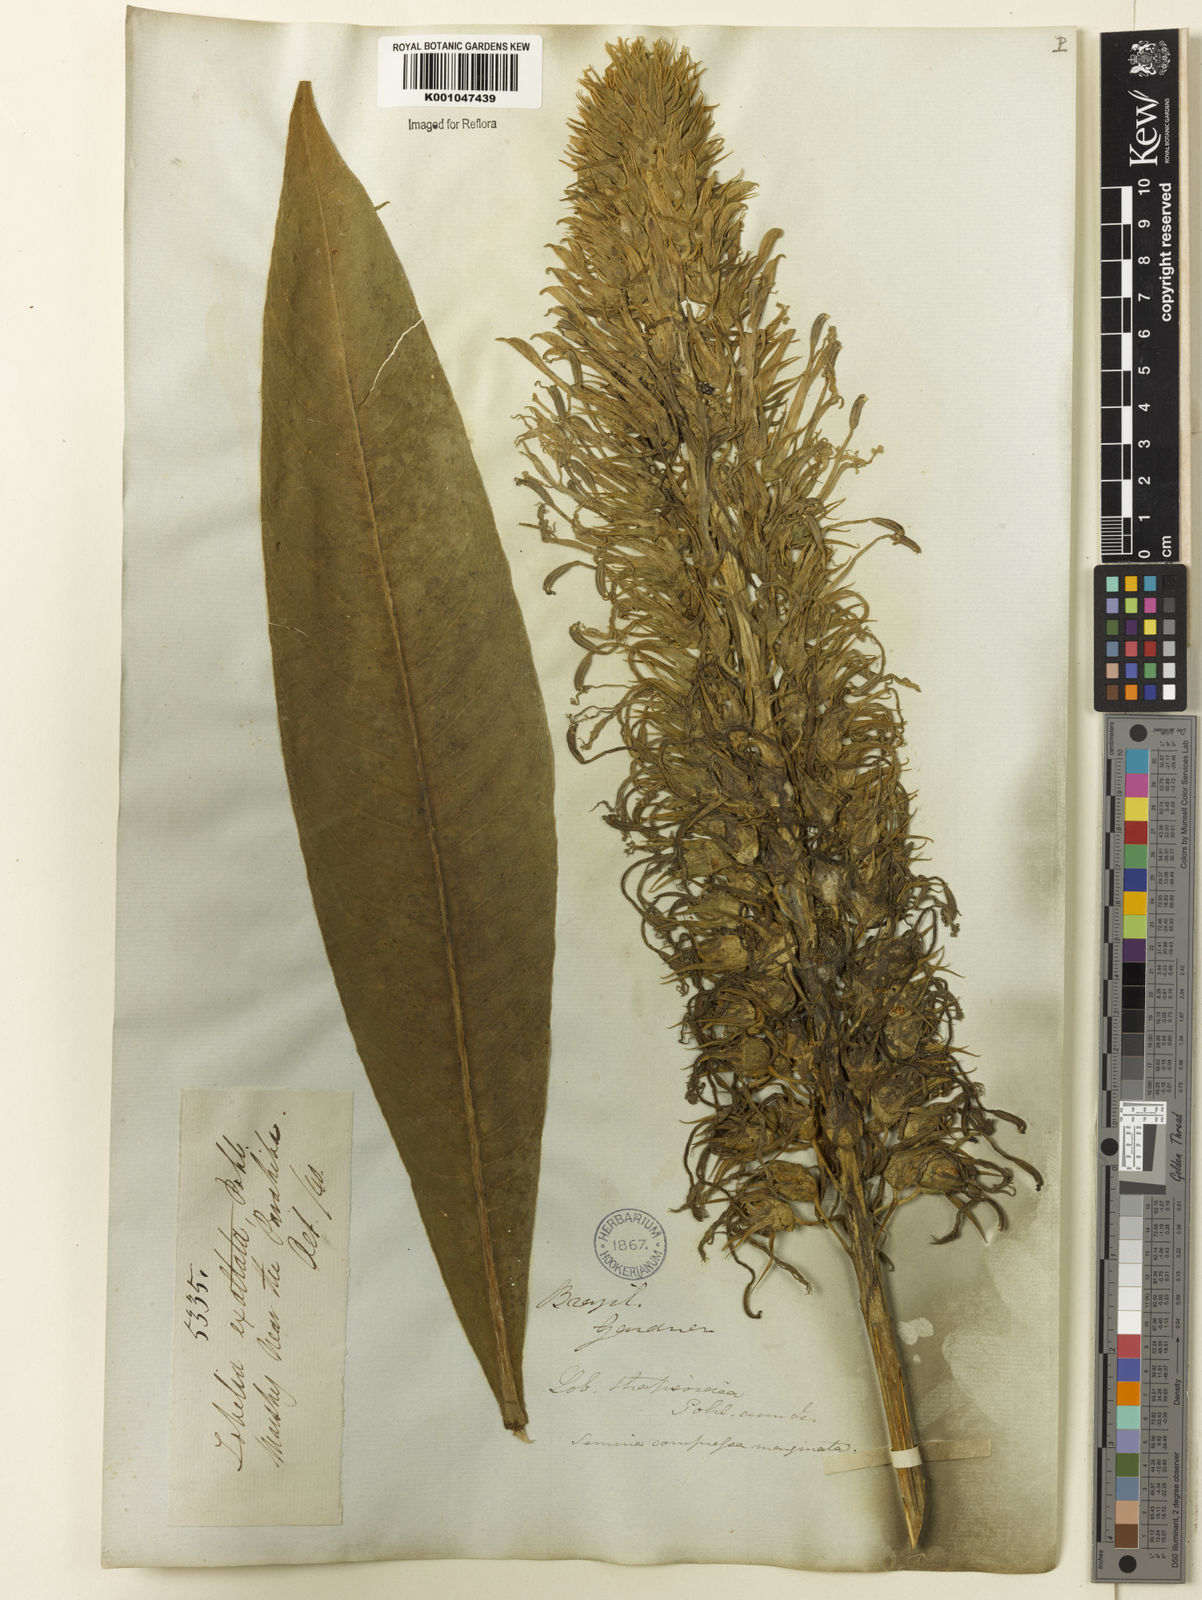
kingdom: Plantae
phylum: Tracheophyta
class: Magnoliopsida
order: Asterales
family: Campanulaceae
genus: Lobelia
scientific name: Lobelia
